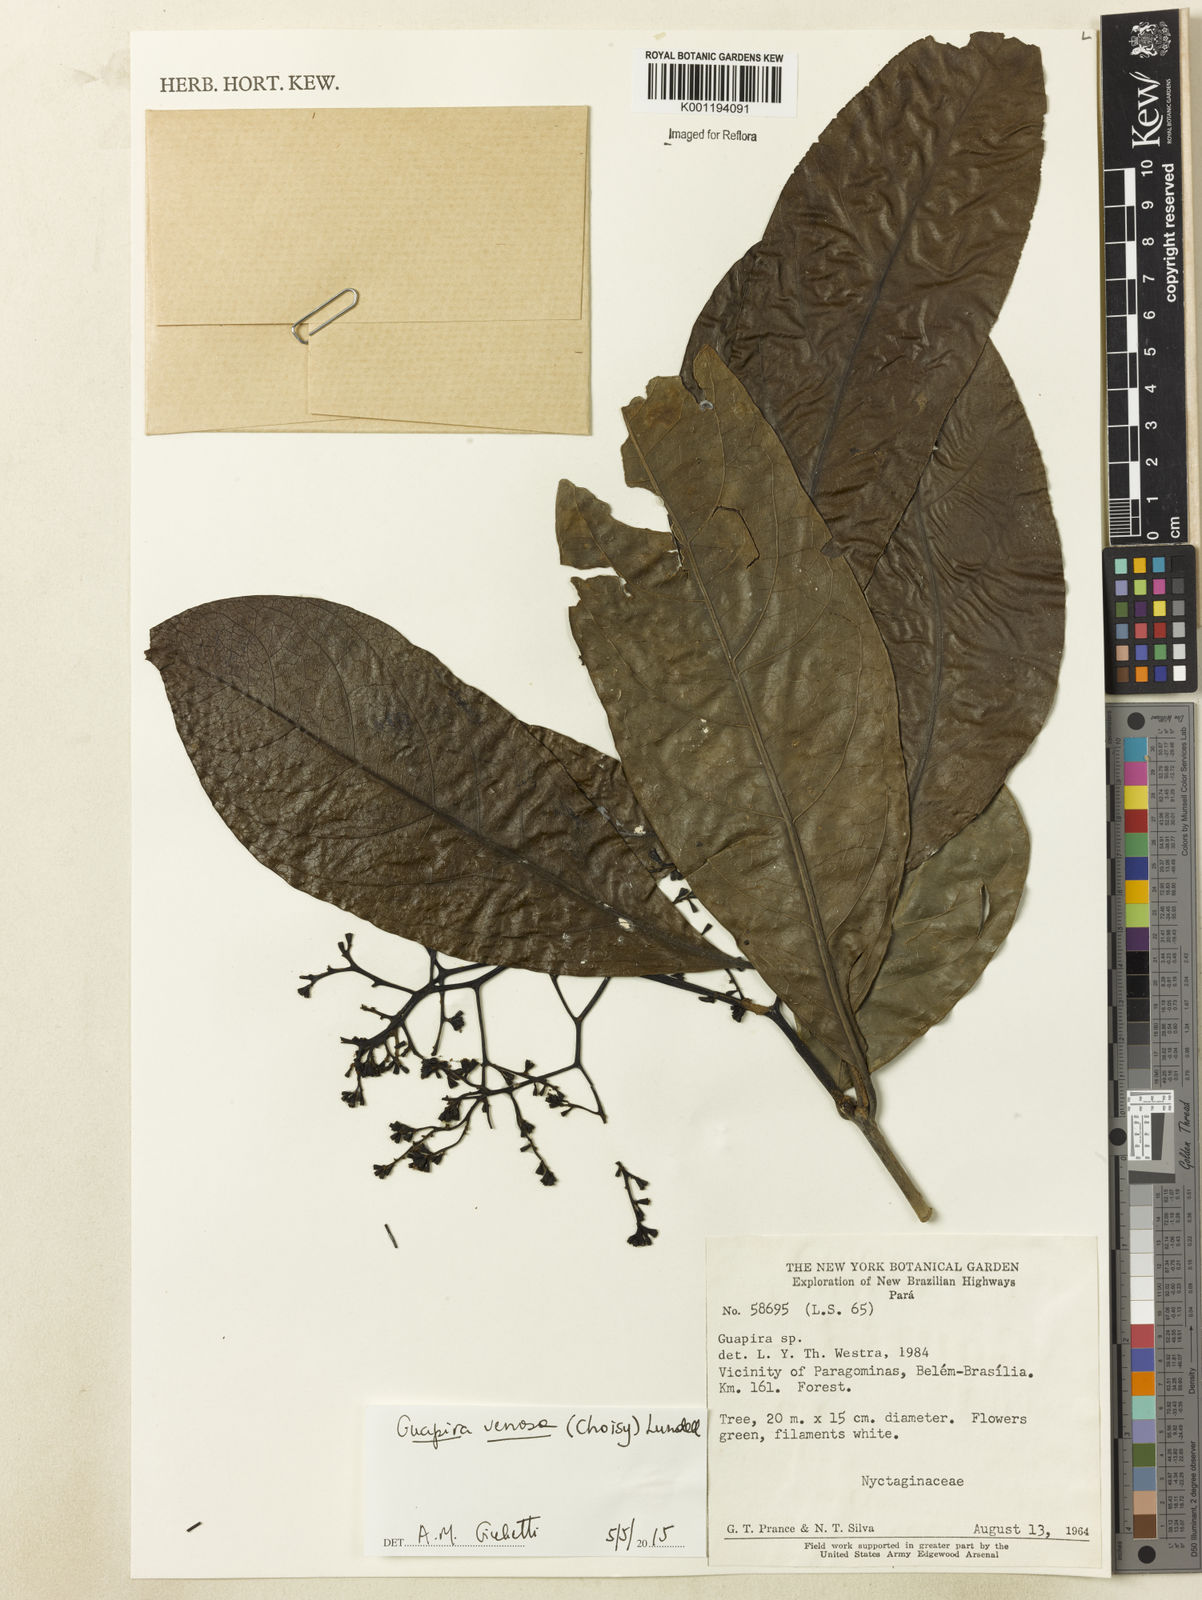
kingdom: Plantae
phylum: Tracheophyta
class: Magnoliopsida
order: Caryophyllales
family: Nyctaginaceae
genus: Guapira
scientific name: Guapira venosa
